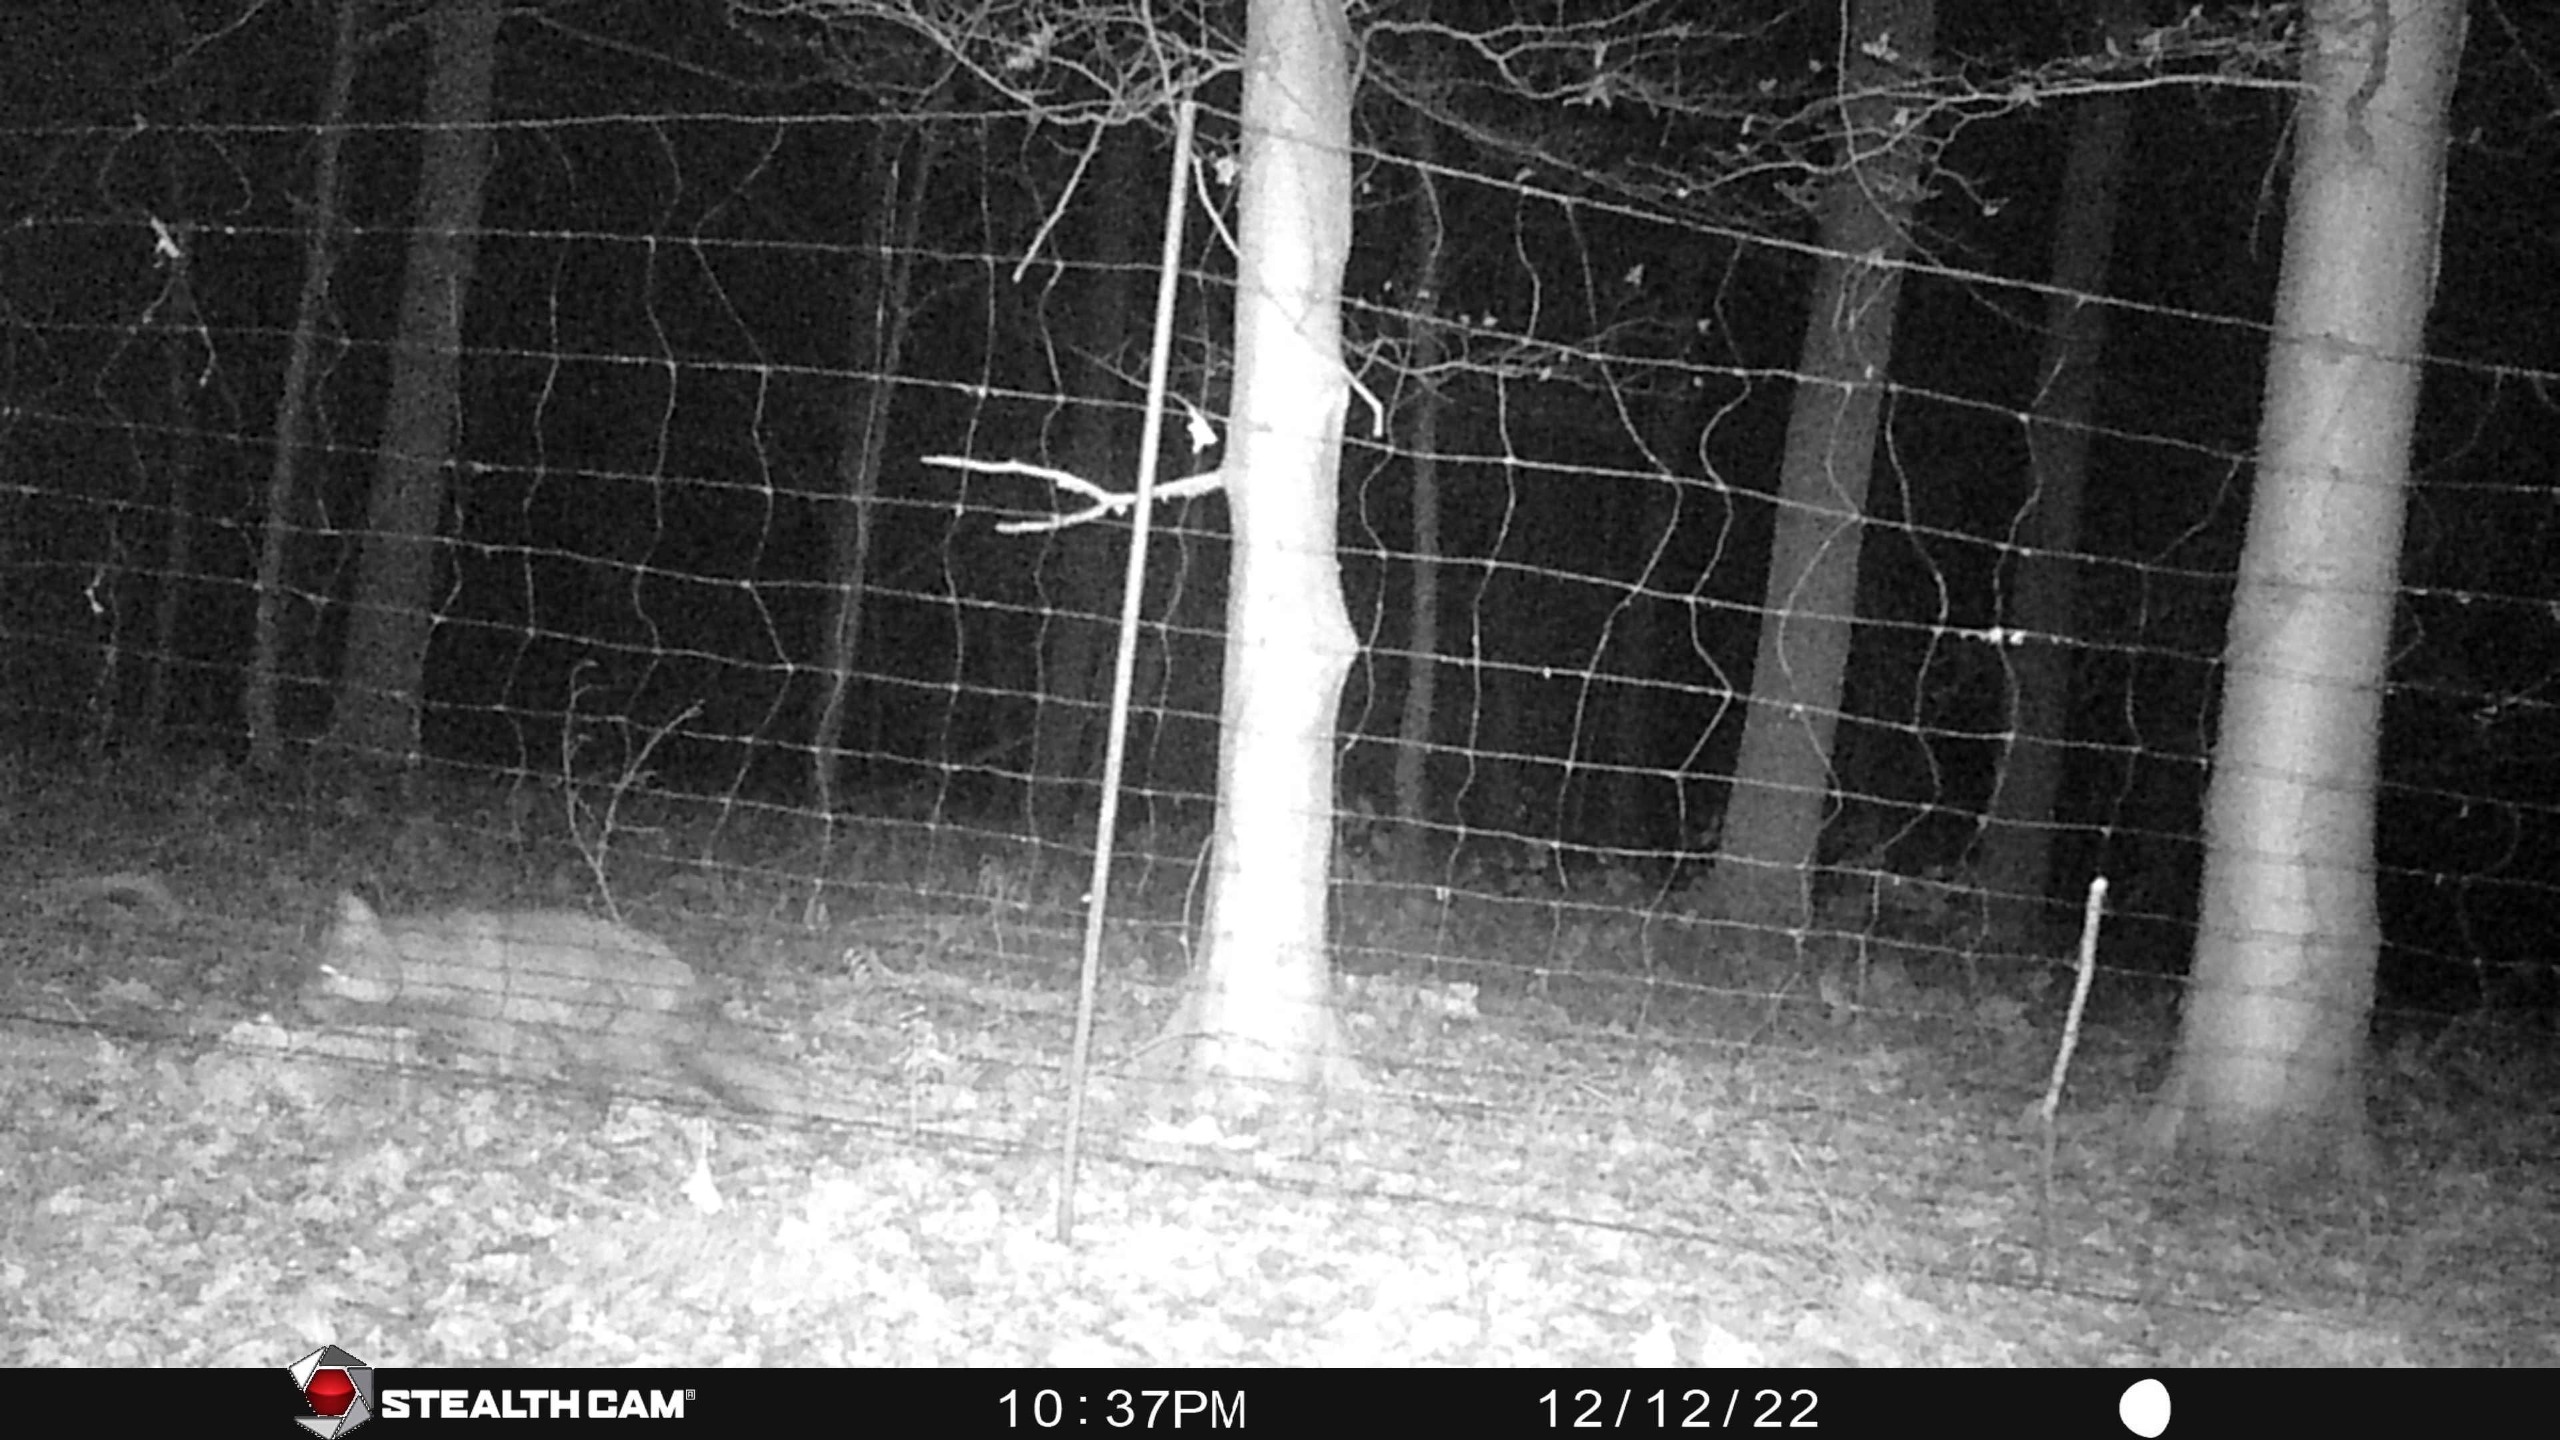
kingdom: Animalia
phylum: Chordata
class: Mammalia
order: Carnivora
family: Canidae
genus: Vulpes
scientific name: Vulpes vulpes
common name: Ræv
